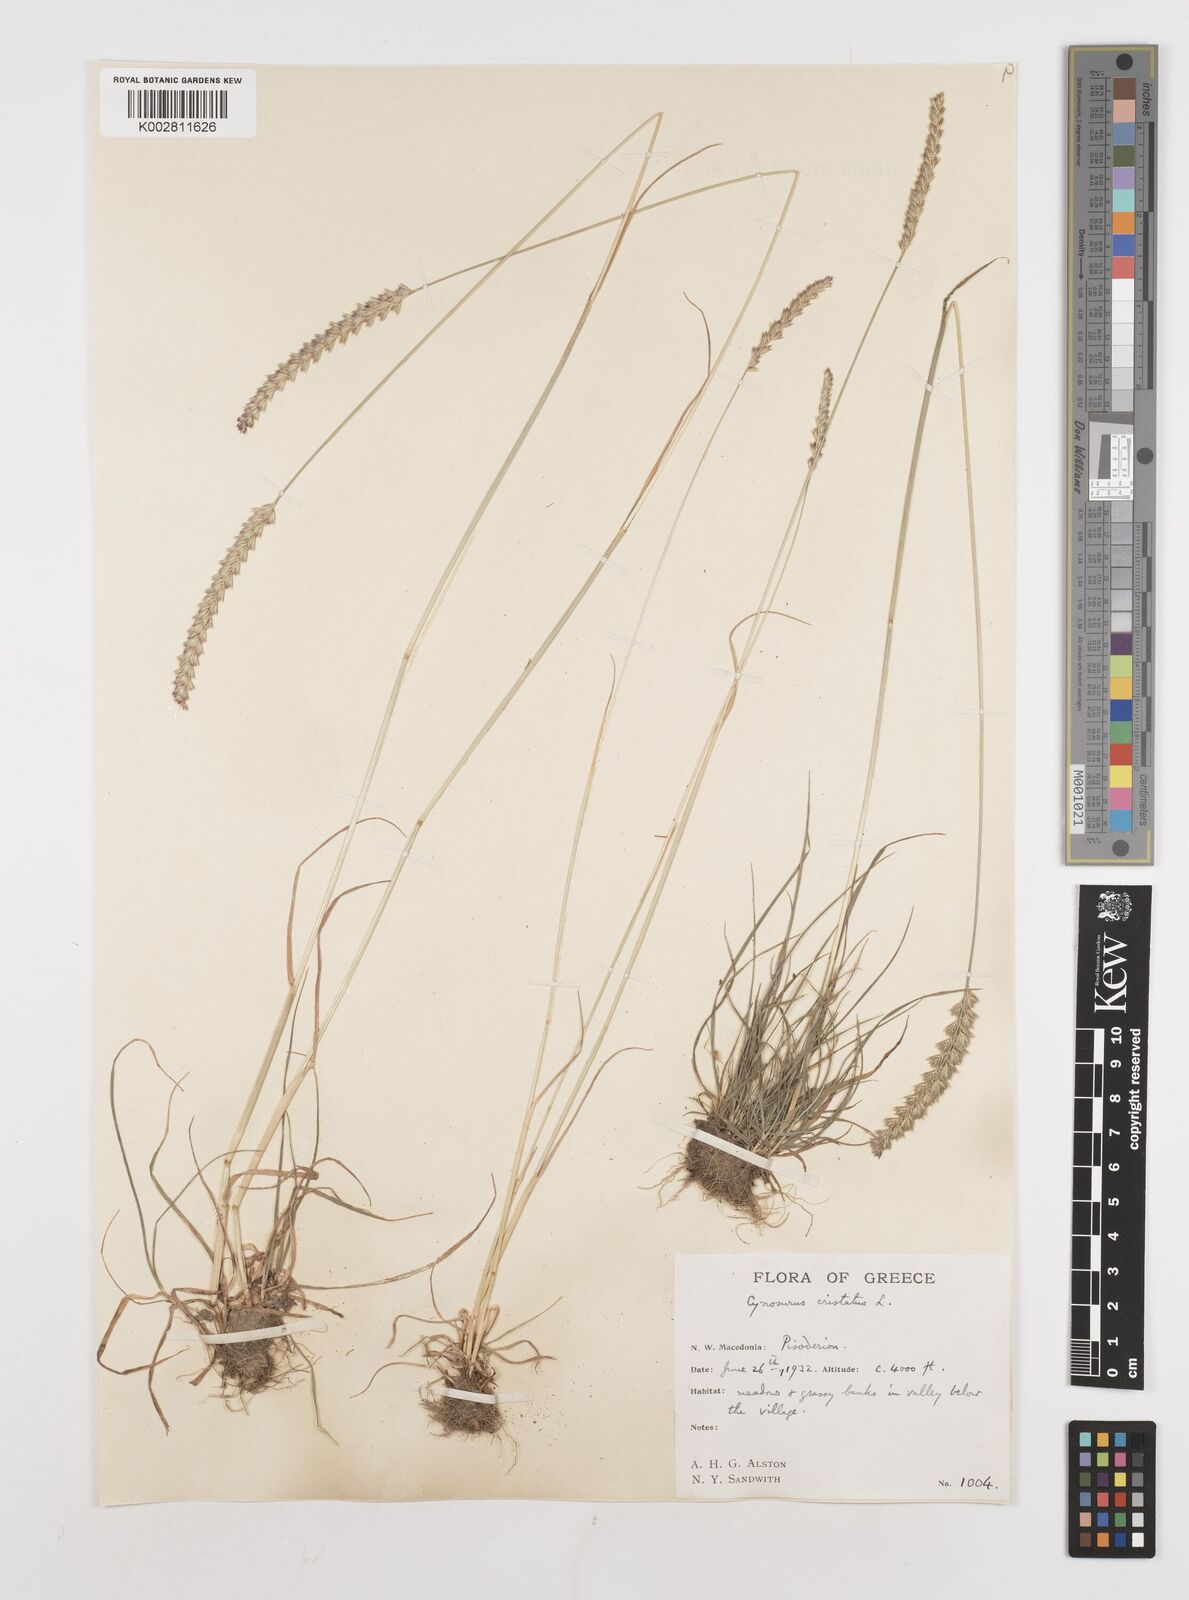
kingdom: Plantae
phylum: Tracheophyta
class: Liliopsida
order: Poales
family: Poaceae
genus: Cynosurus
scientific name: Cynosurus cristatus
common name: Crested dog's-tail
